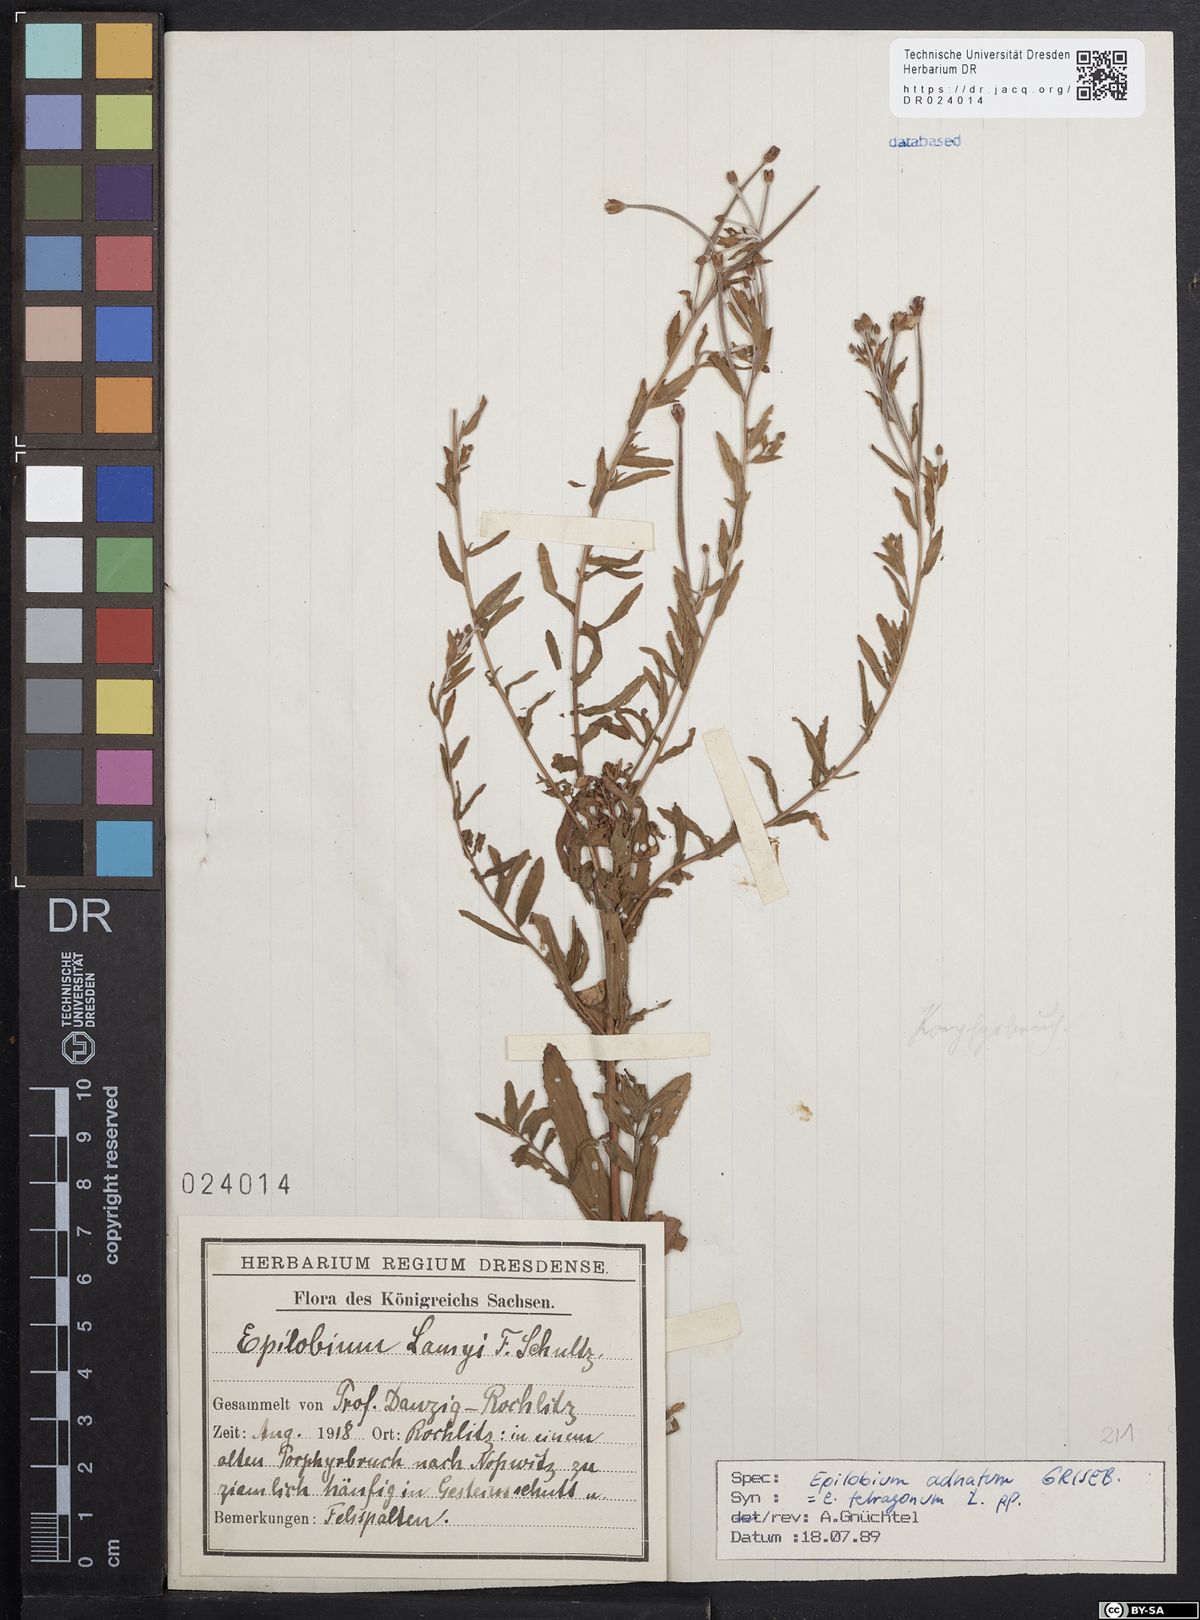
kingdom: Plantae
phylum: Tracheophyta
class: Magnoliopsida
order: Myrtales
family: Onagraceae
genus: Epilobium
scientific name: Epilobium tetragonum
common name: Square-stemmed willowherb
